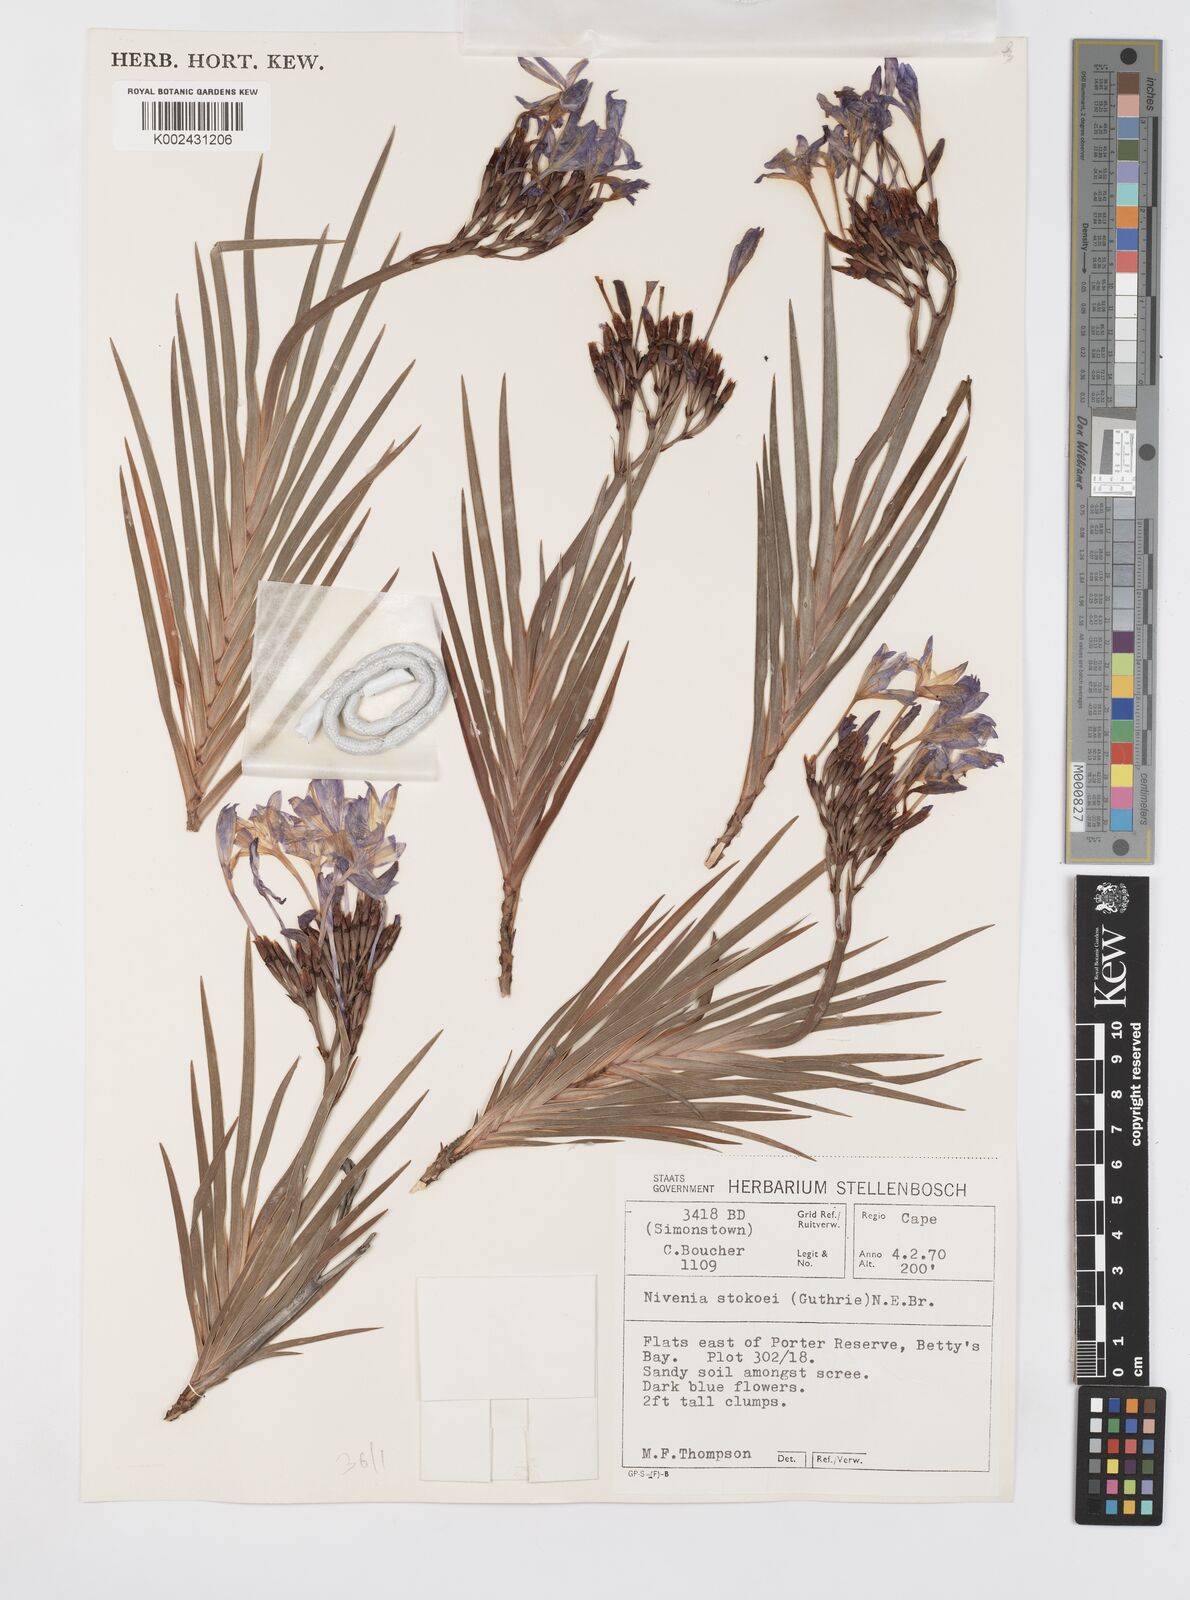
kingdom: Plantae
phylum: Tracheophyta
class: Liliopsida
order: Asparagales
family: Iridaceae
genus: Nivenia
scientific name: Nivenia stokoei
